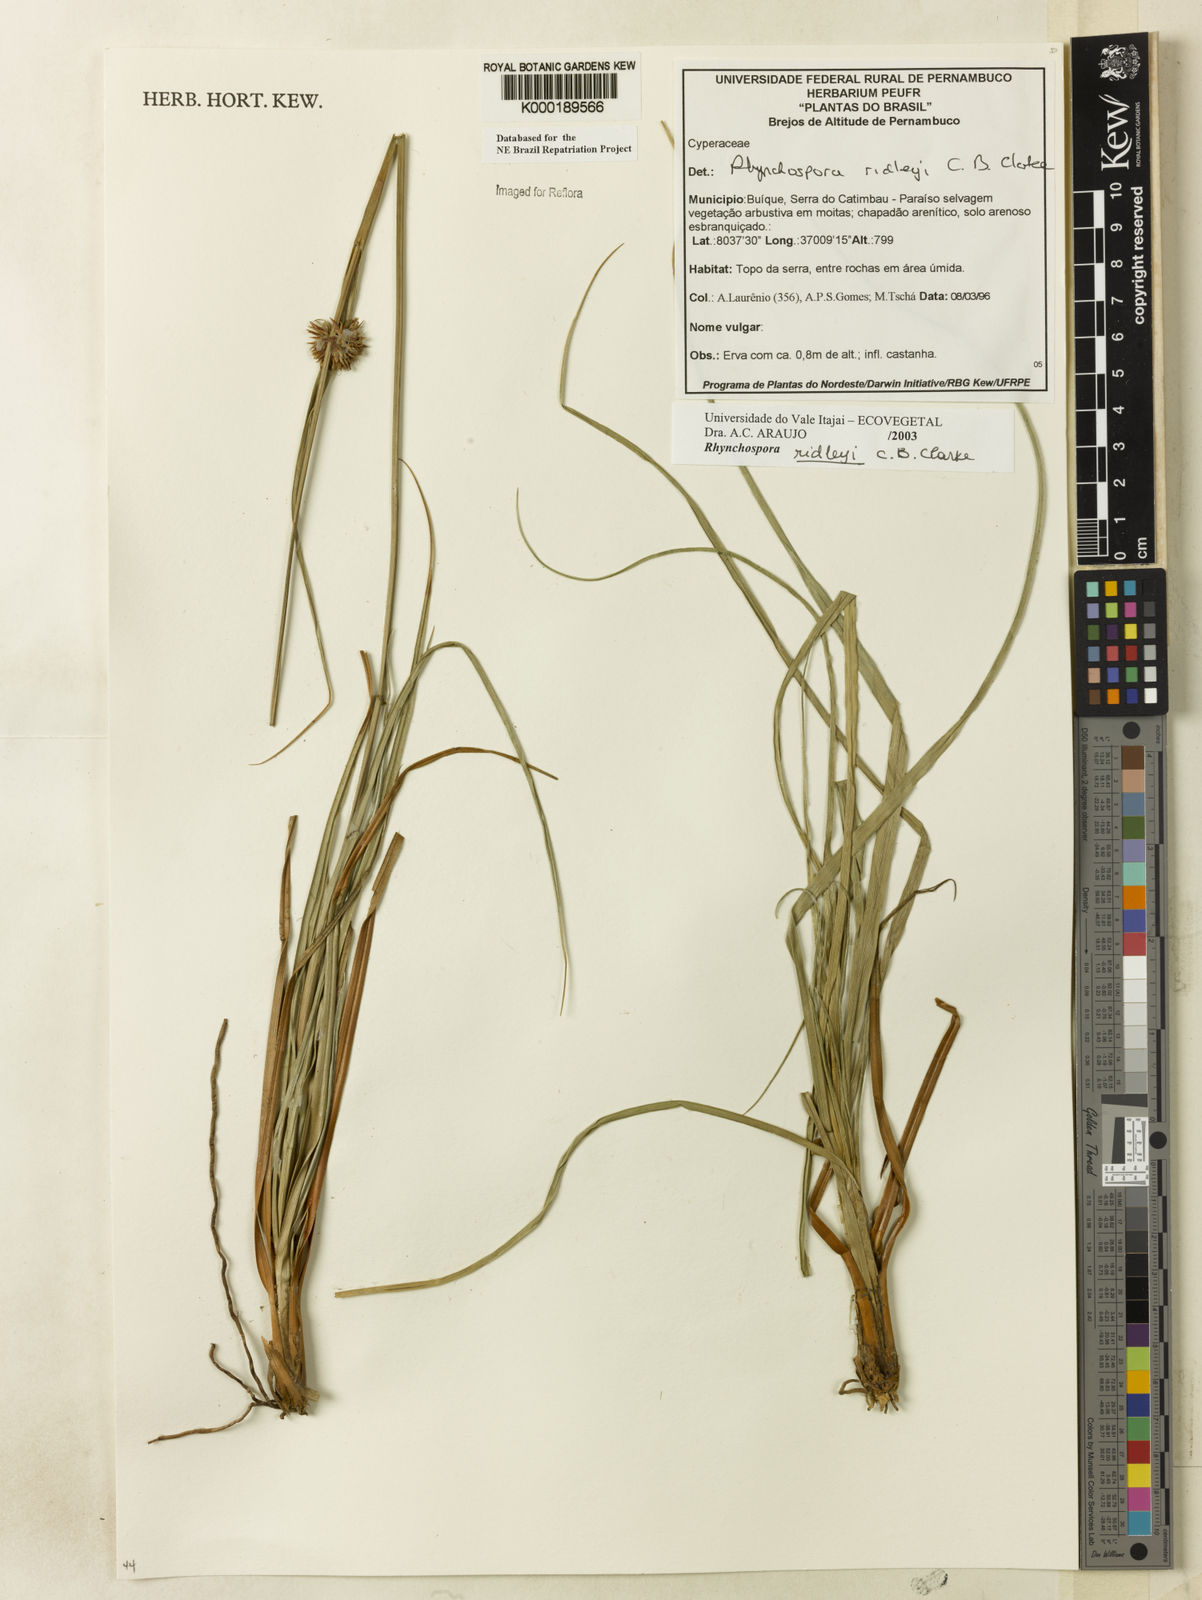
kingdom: Plantae
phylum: Tracheophyta
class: Liliopsida
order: Poales
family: Cyperaceae
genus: Rhynchospora
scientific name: Rhynchospora ridleyi
